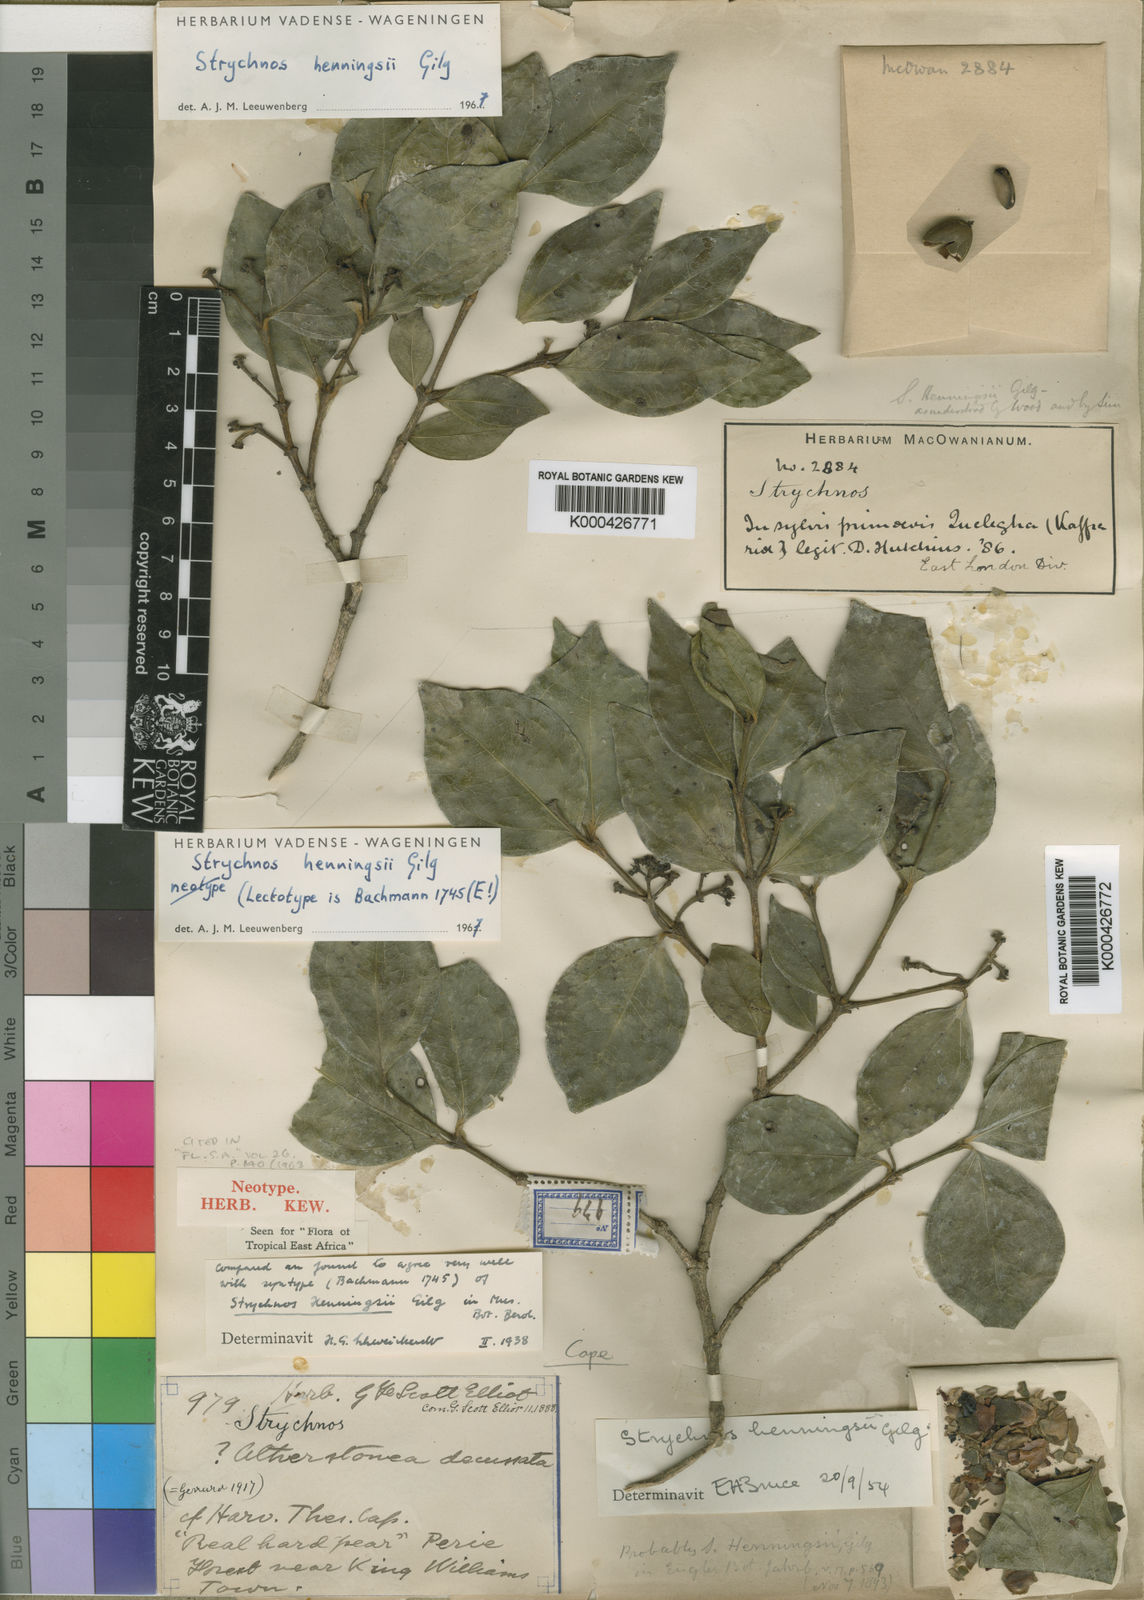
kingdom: Plantae
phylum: Tracheophyta
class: Magnoliopsida
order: Gentianales
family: Loganiaceae
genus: Strychnos
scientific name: Strychnos henningsii
